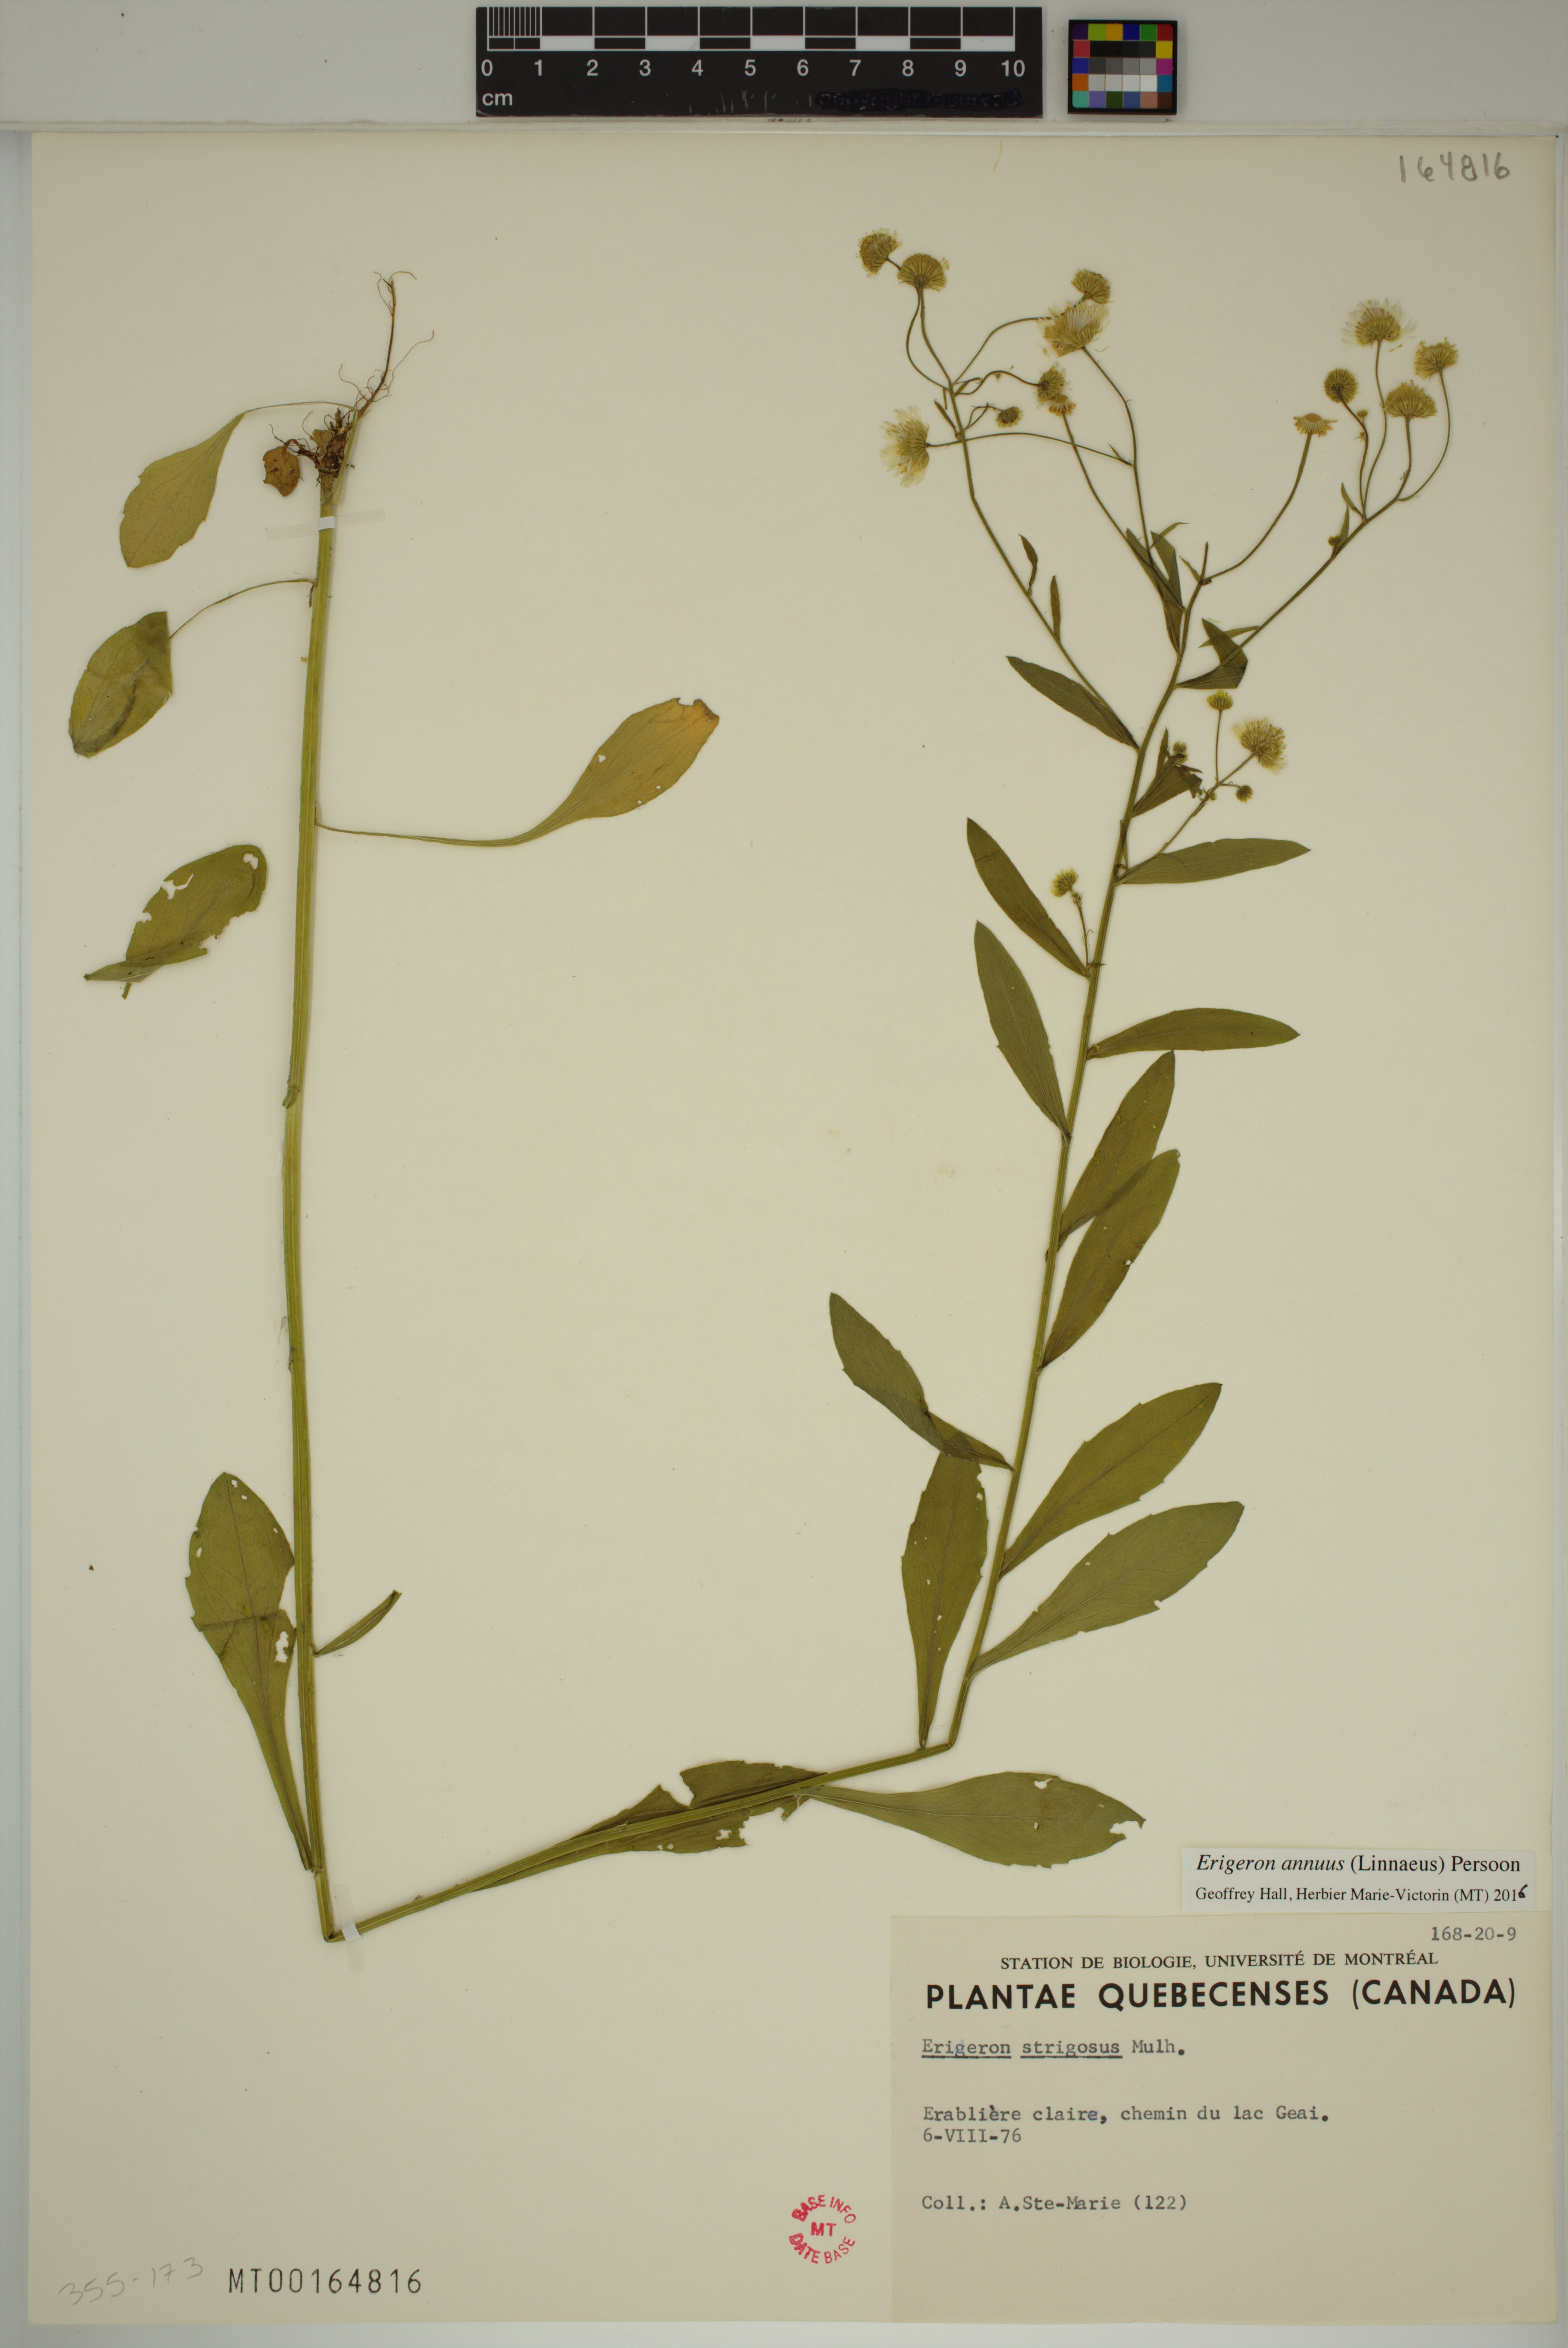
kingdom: Plantae
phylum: Tracheophyta
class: Magnoliopsida
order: Asterales
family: Asteraceae
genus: Erigeron
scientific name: Erigeron annuus
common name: Tall fleabane
